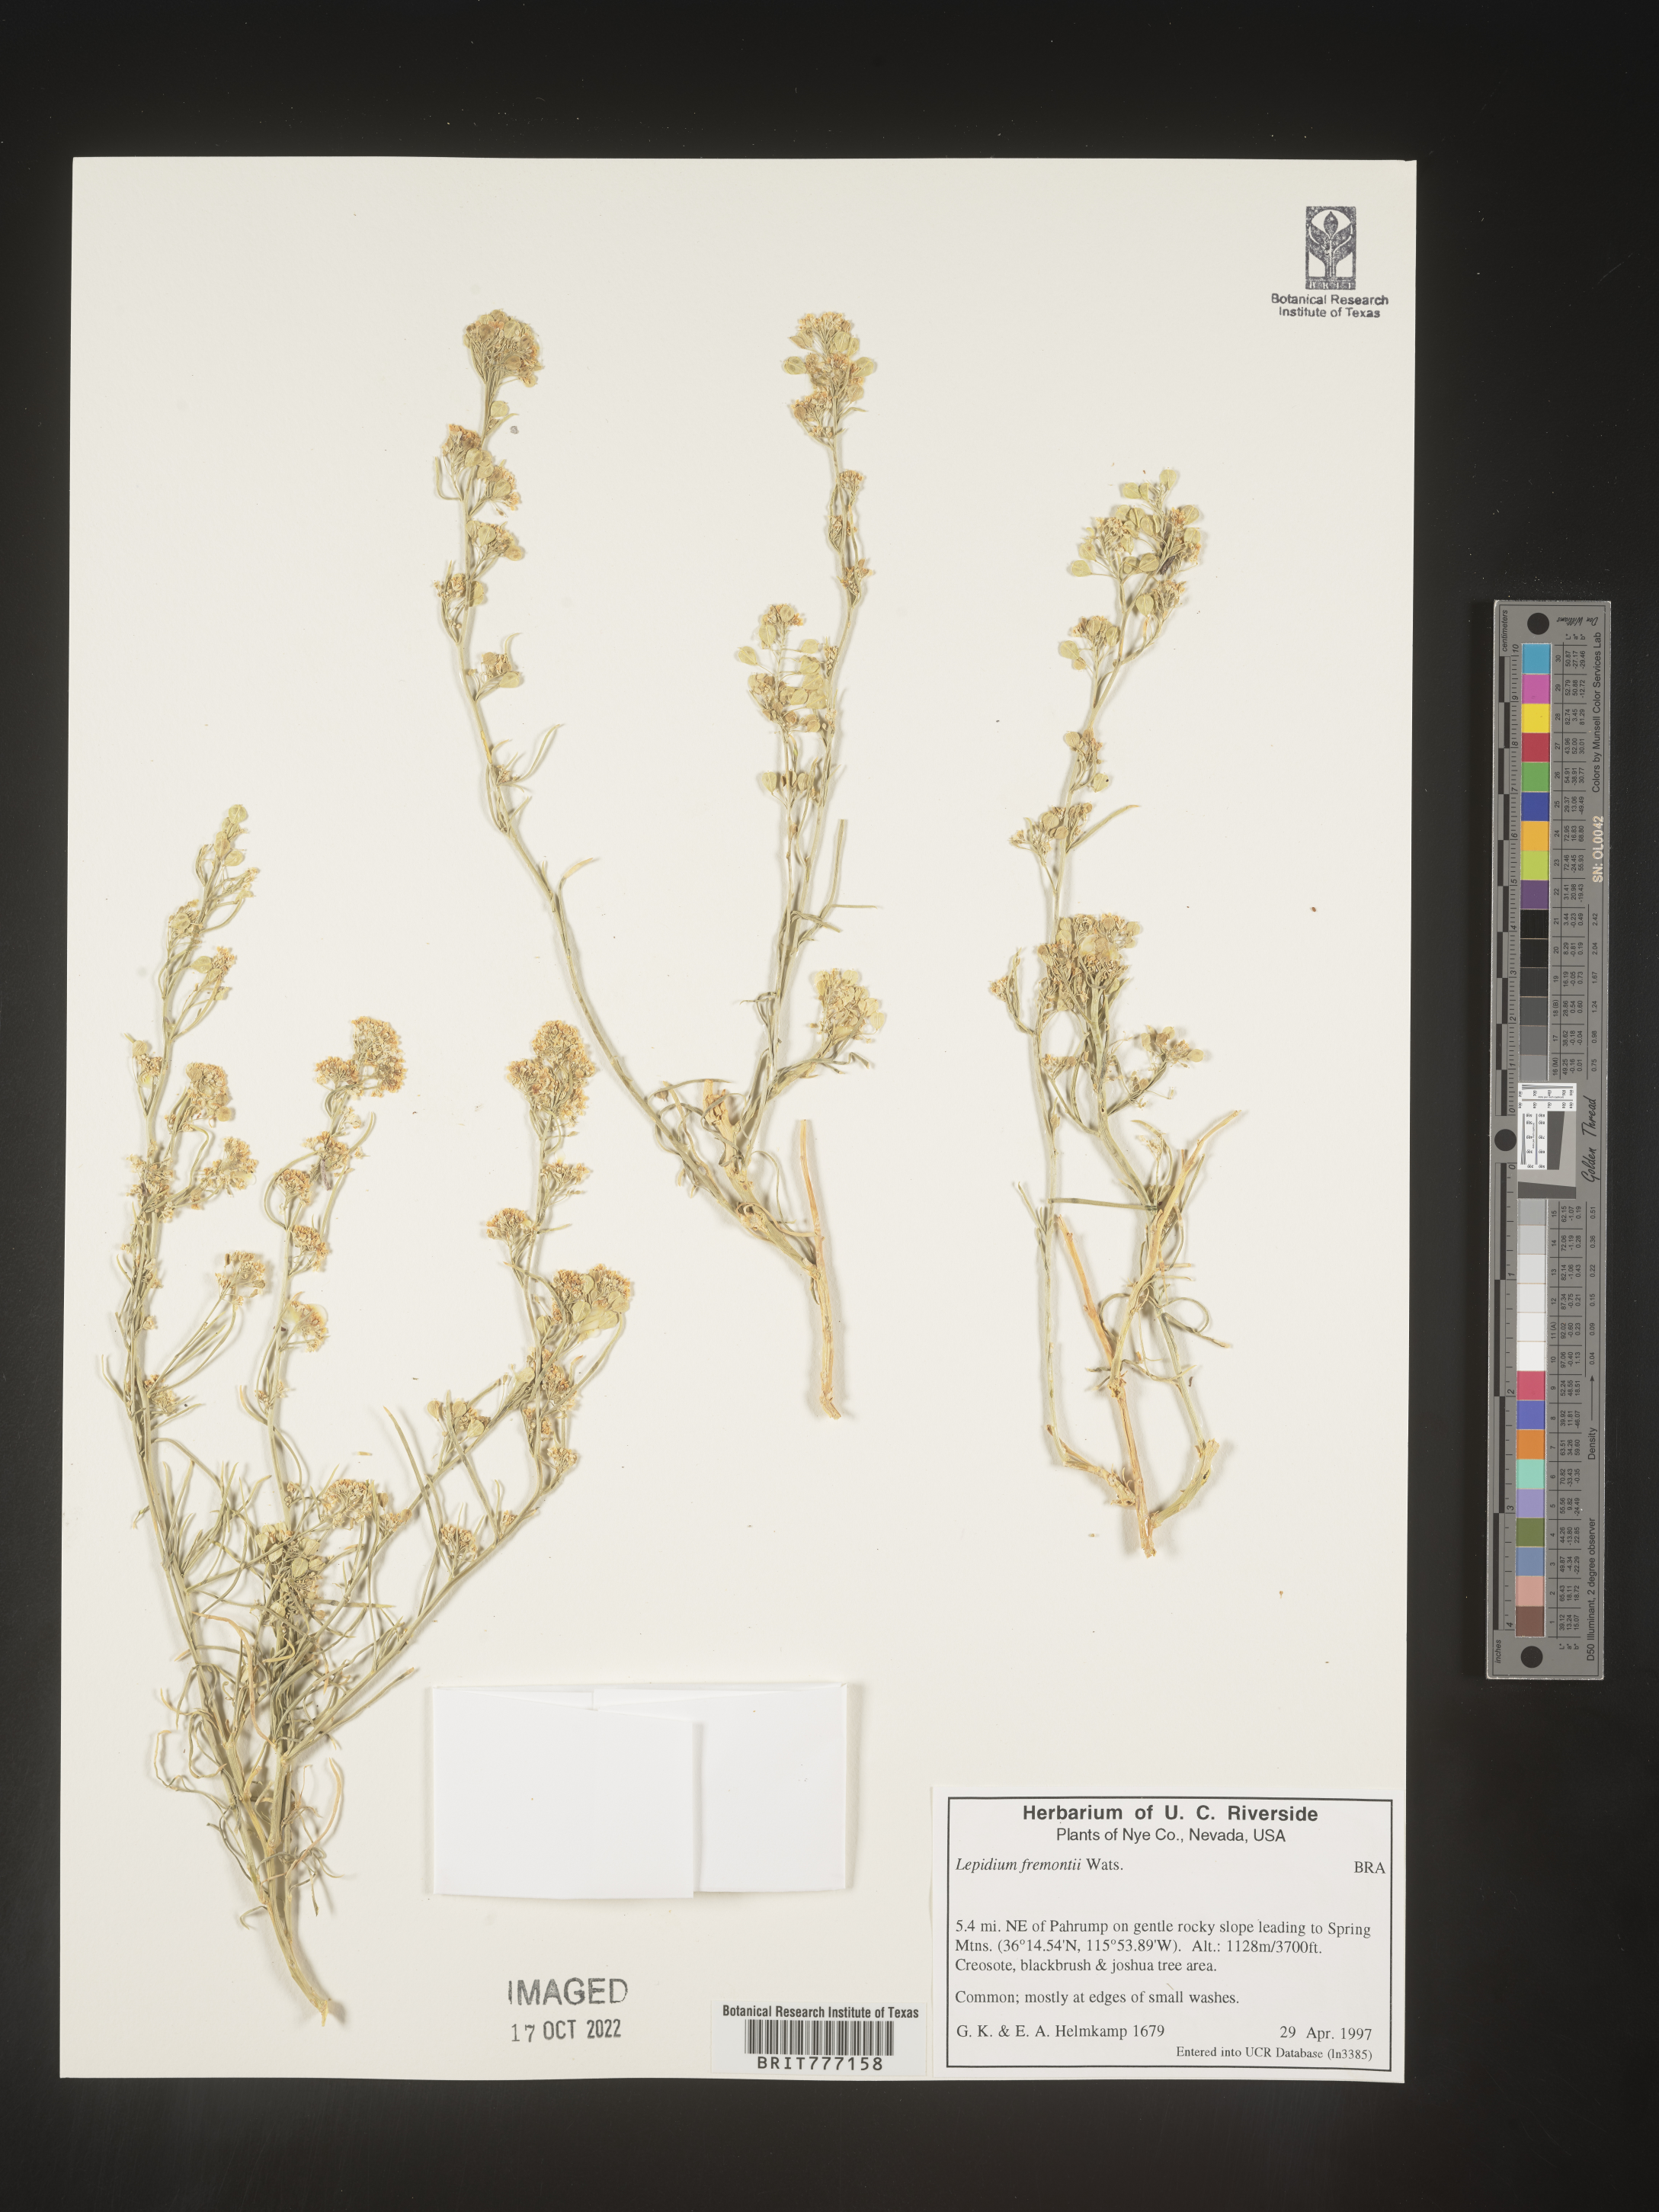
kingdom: Plantae
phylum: Tracheophyta
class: Magnoliopsida
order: Brassicales
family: Brassicaceae
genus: Lepidium
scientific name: Lepidium fremontii
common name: Fremont's pepperwort
